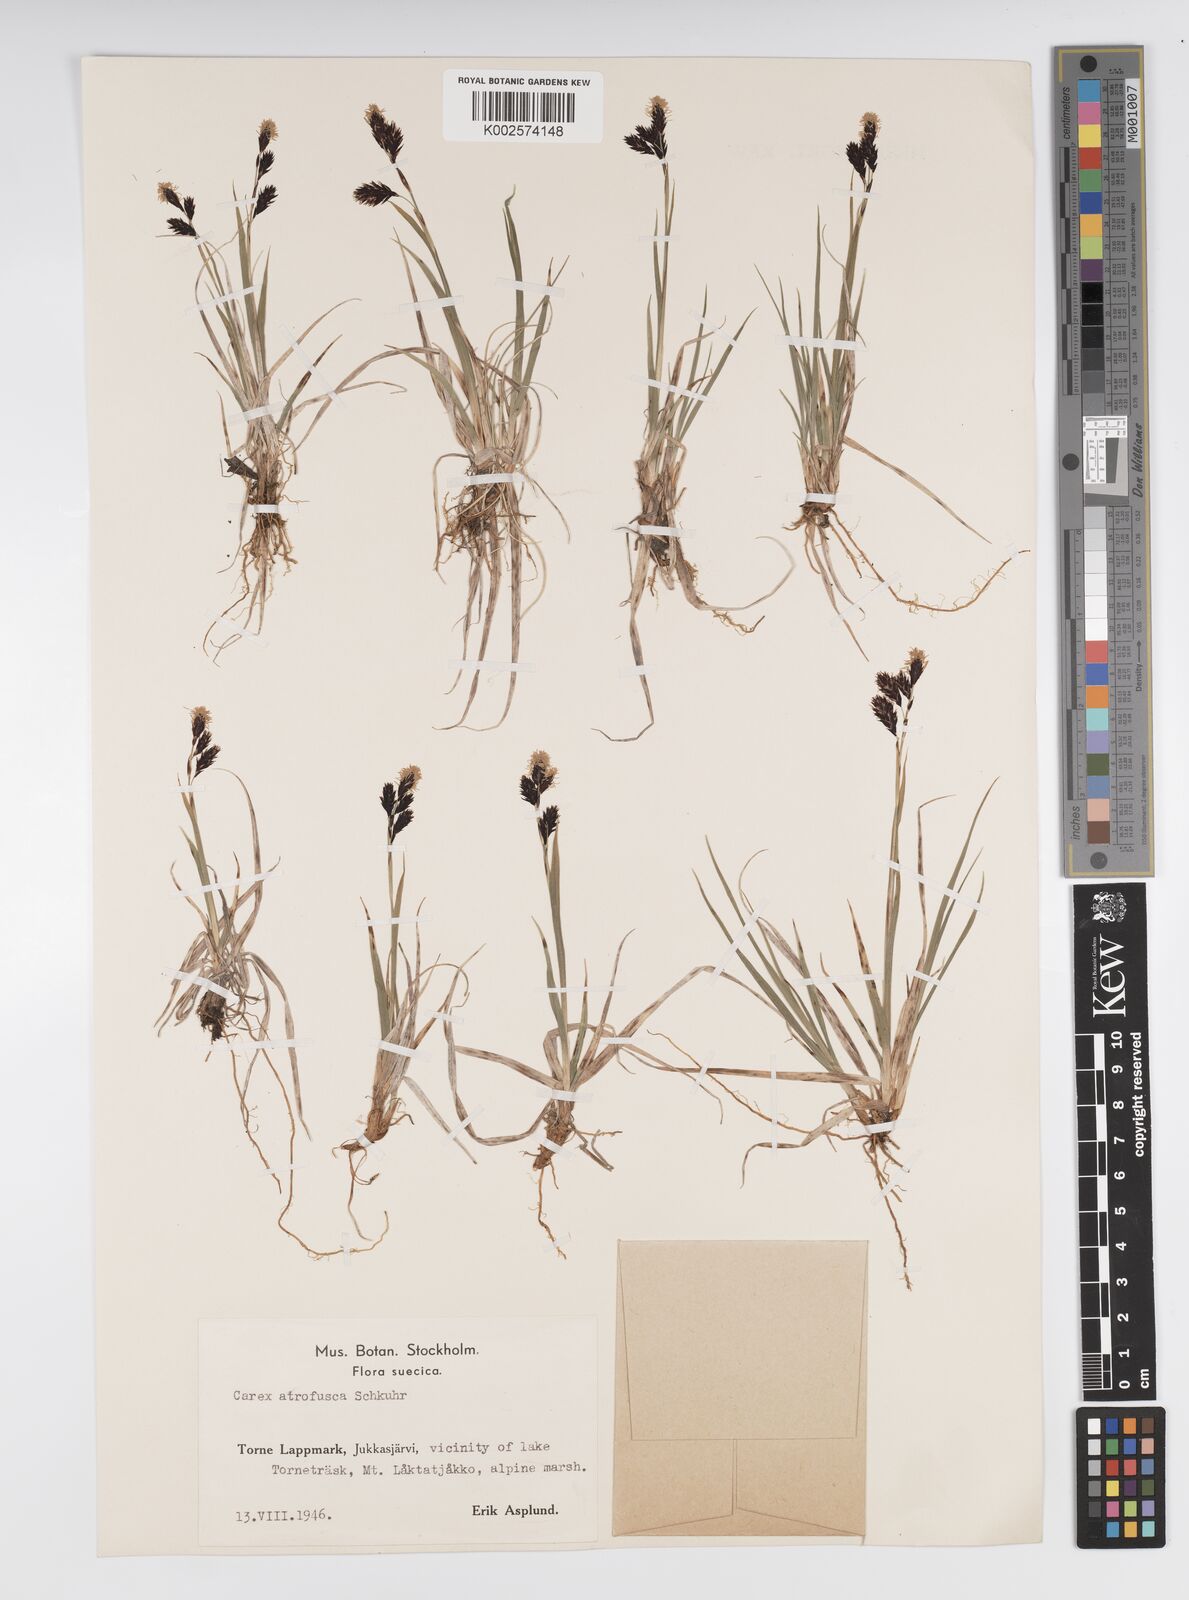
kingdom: Plantae
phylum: Tracheophyta
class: Liliopsida
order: Poales
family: Cyperaceae
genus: Carex
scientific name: Carex atrofusca
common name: Scorched alpine-sedge
